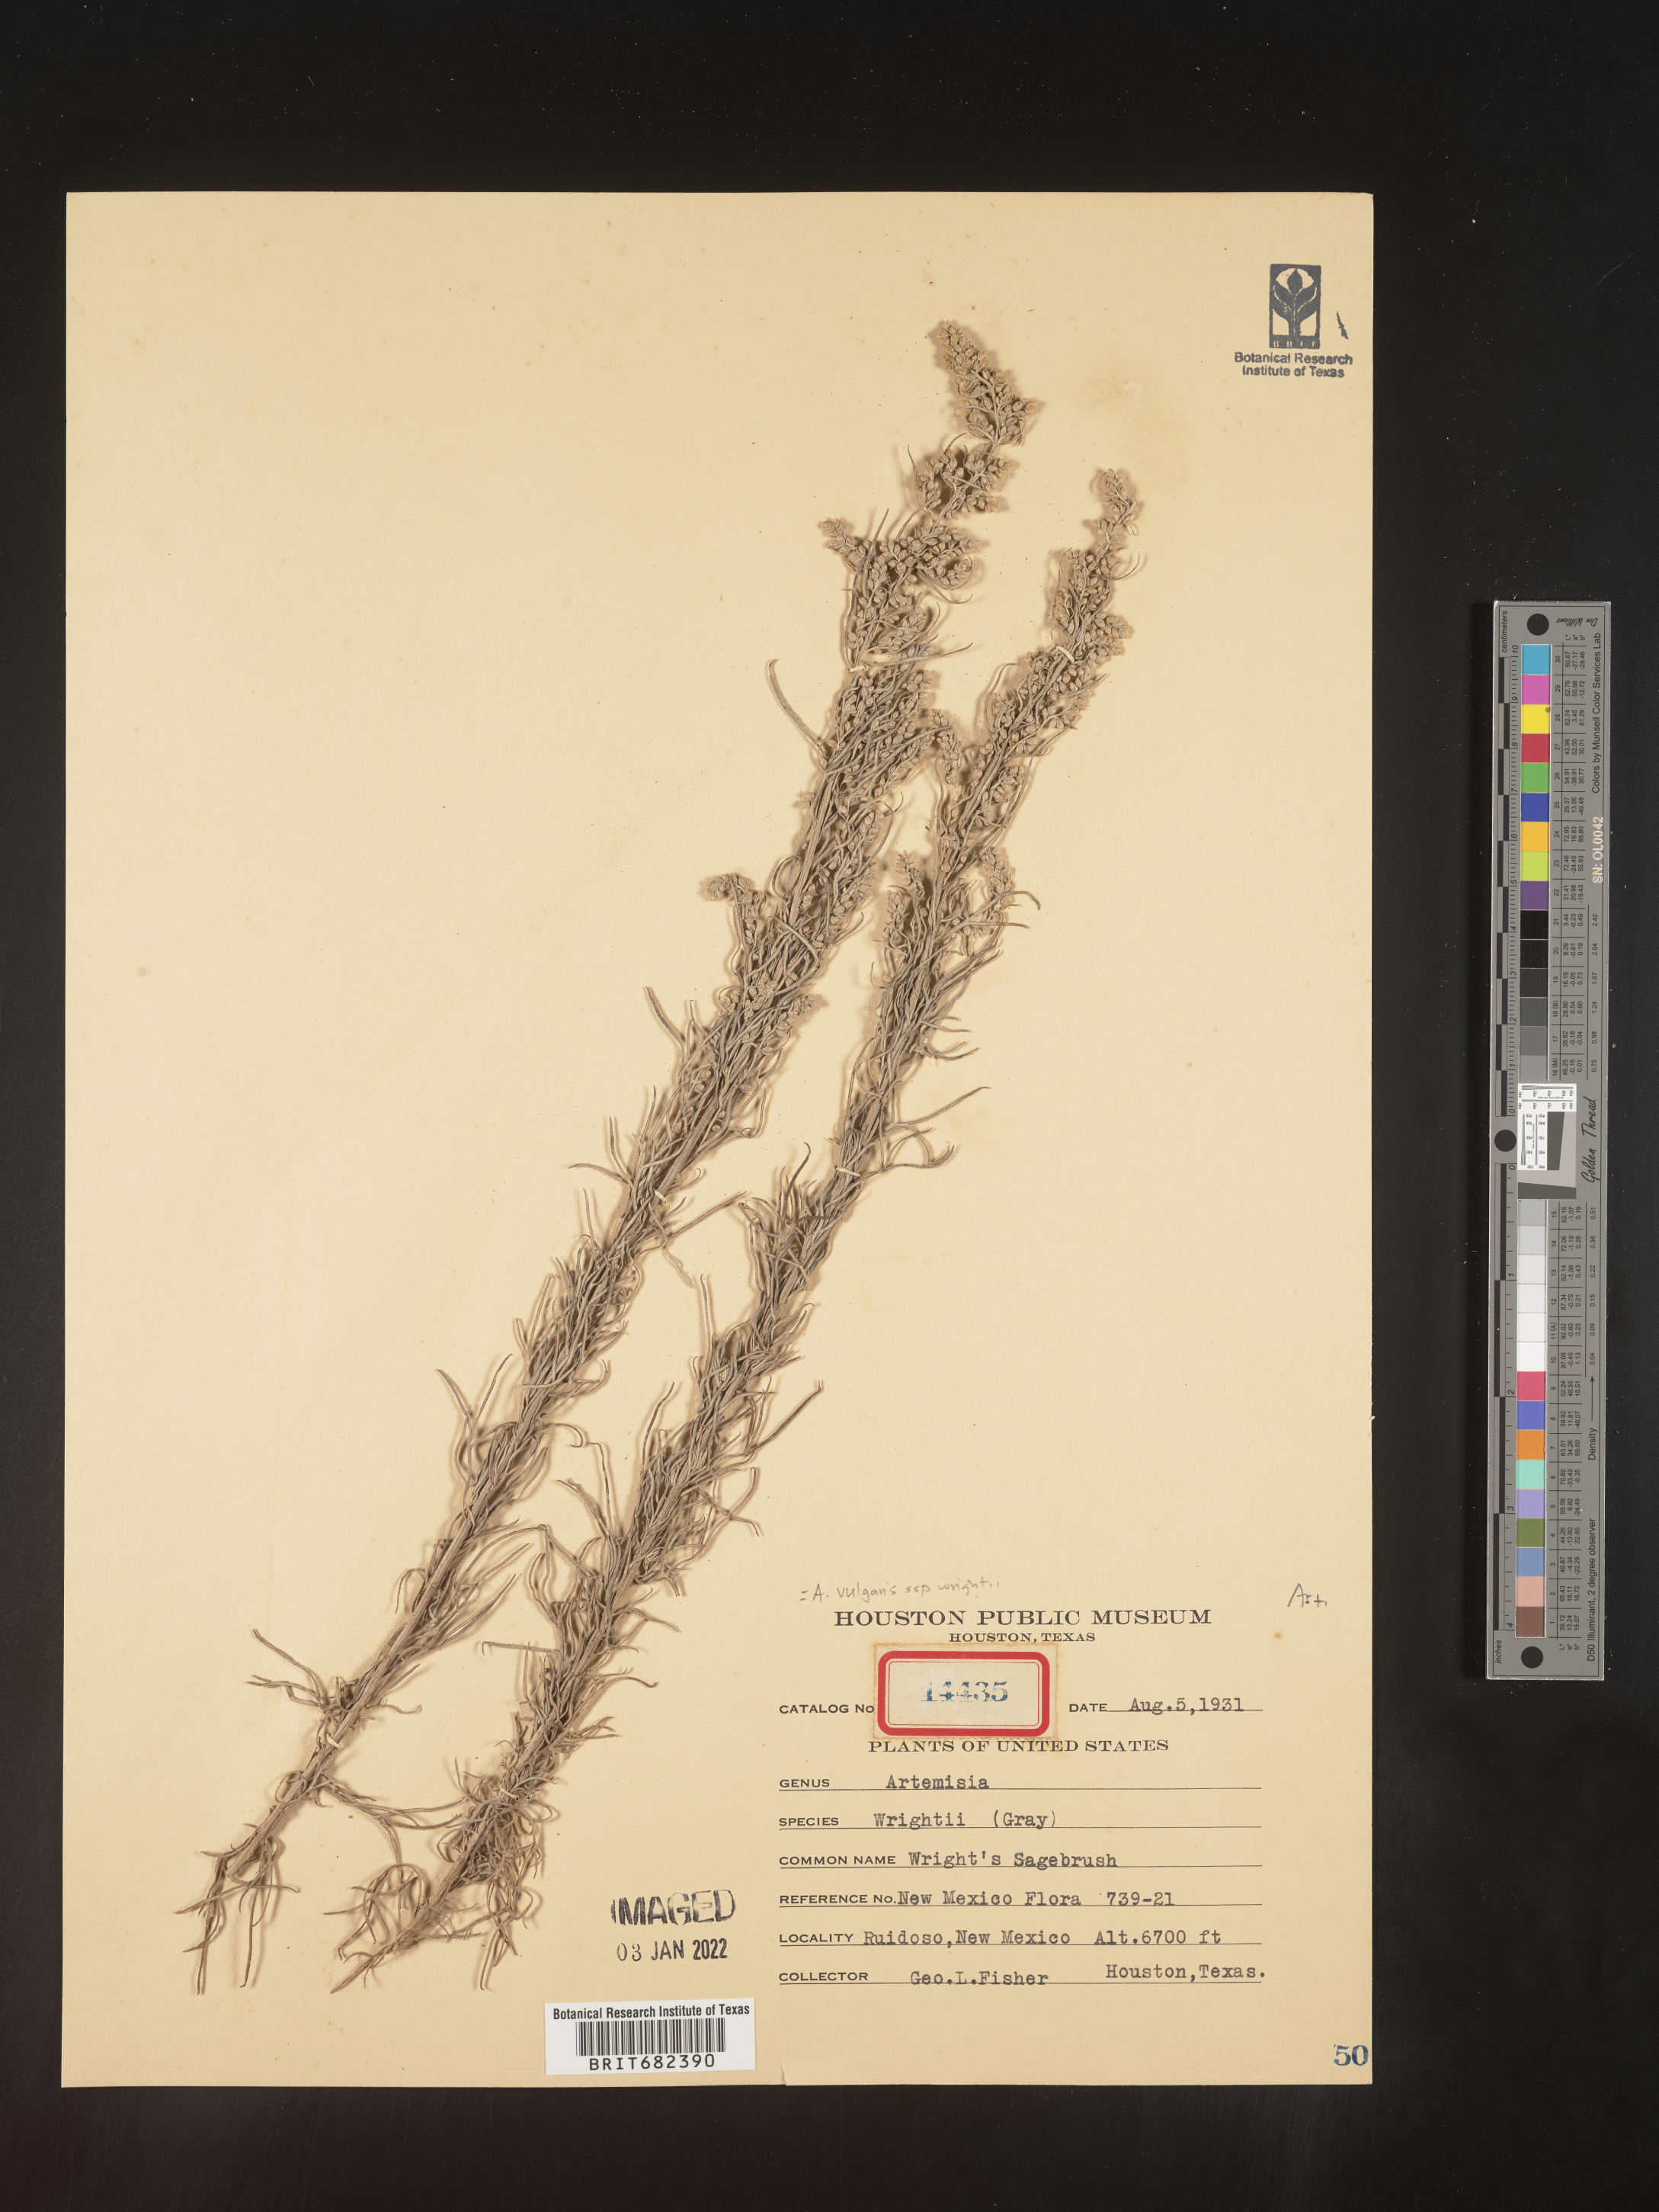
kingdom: Plantae
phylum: Tracheophyta
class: Magnoliopsida
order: Asterales
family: Asteraceae
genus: Artemisia
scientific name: Artemisia vulgaris
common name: Mugwort
